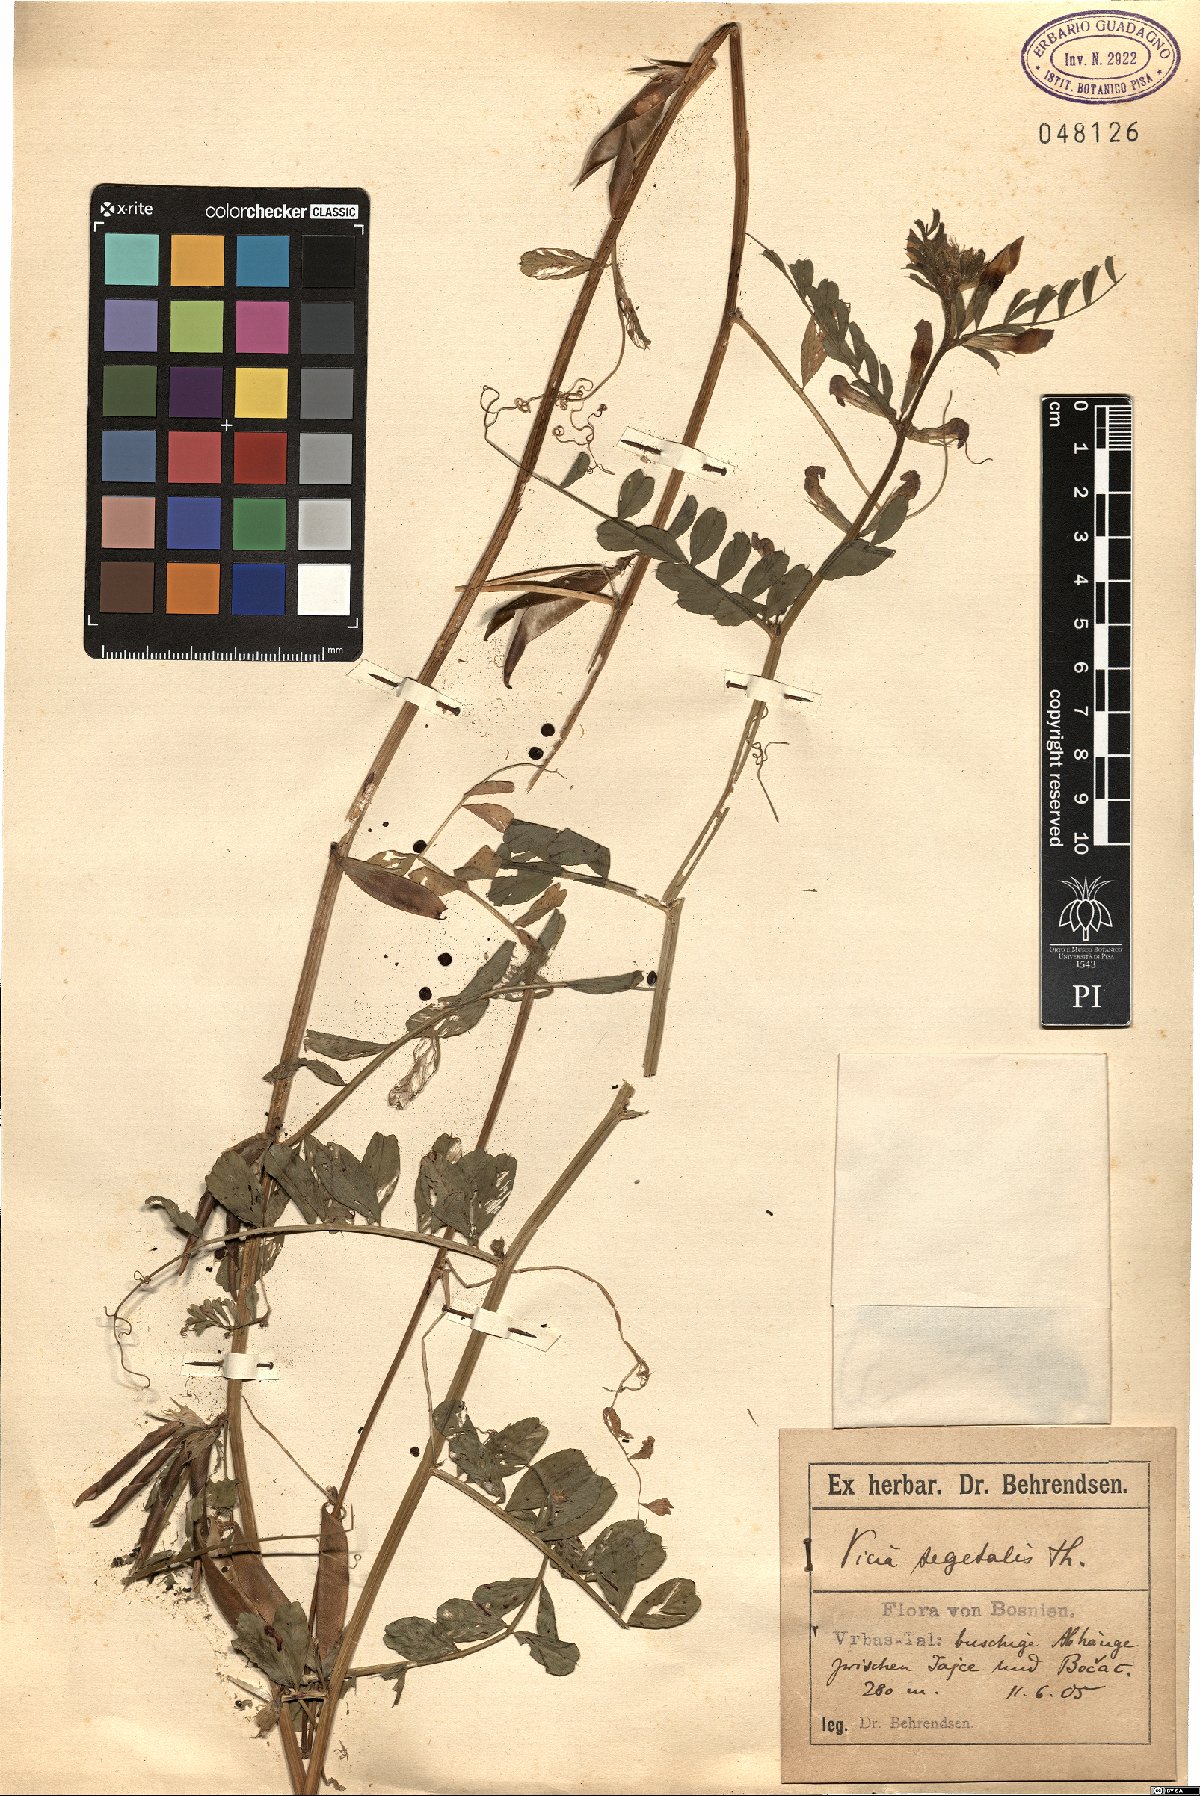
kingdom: Plantae
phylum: Tracheophyta
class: Magnoliopsida
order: Fabales
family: Fabaceae
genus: Vicia
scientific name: Vicia sativa
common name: Garden vetch
